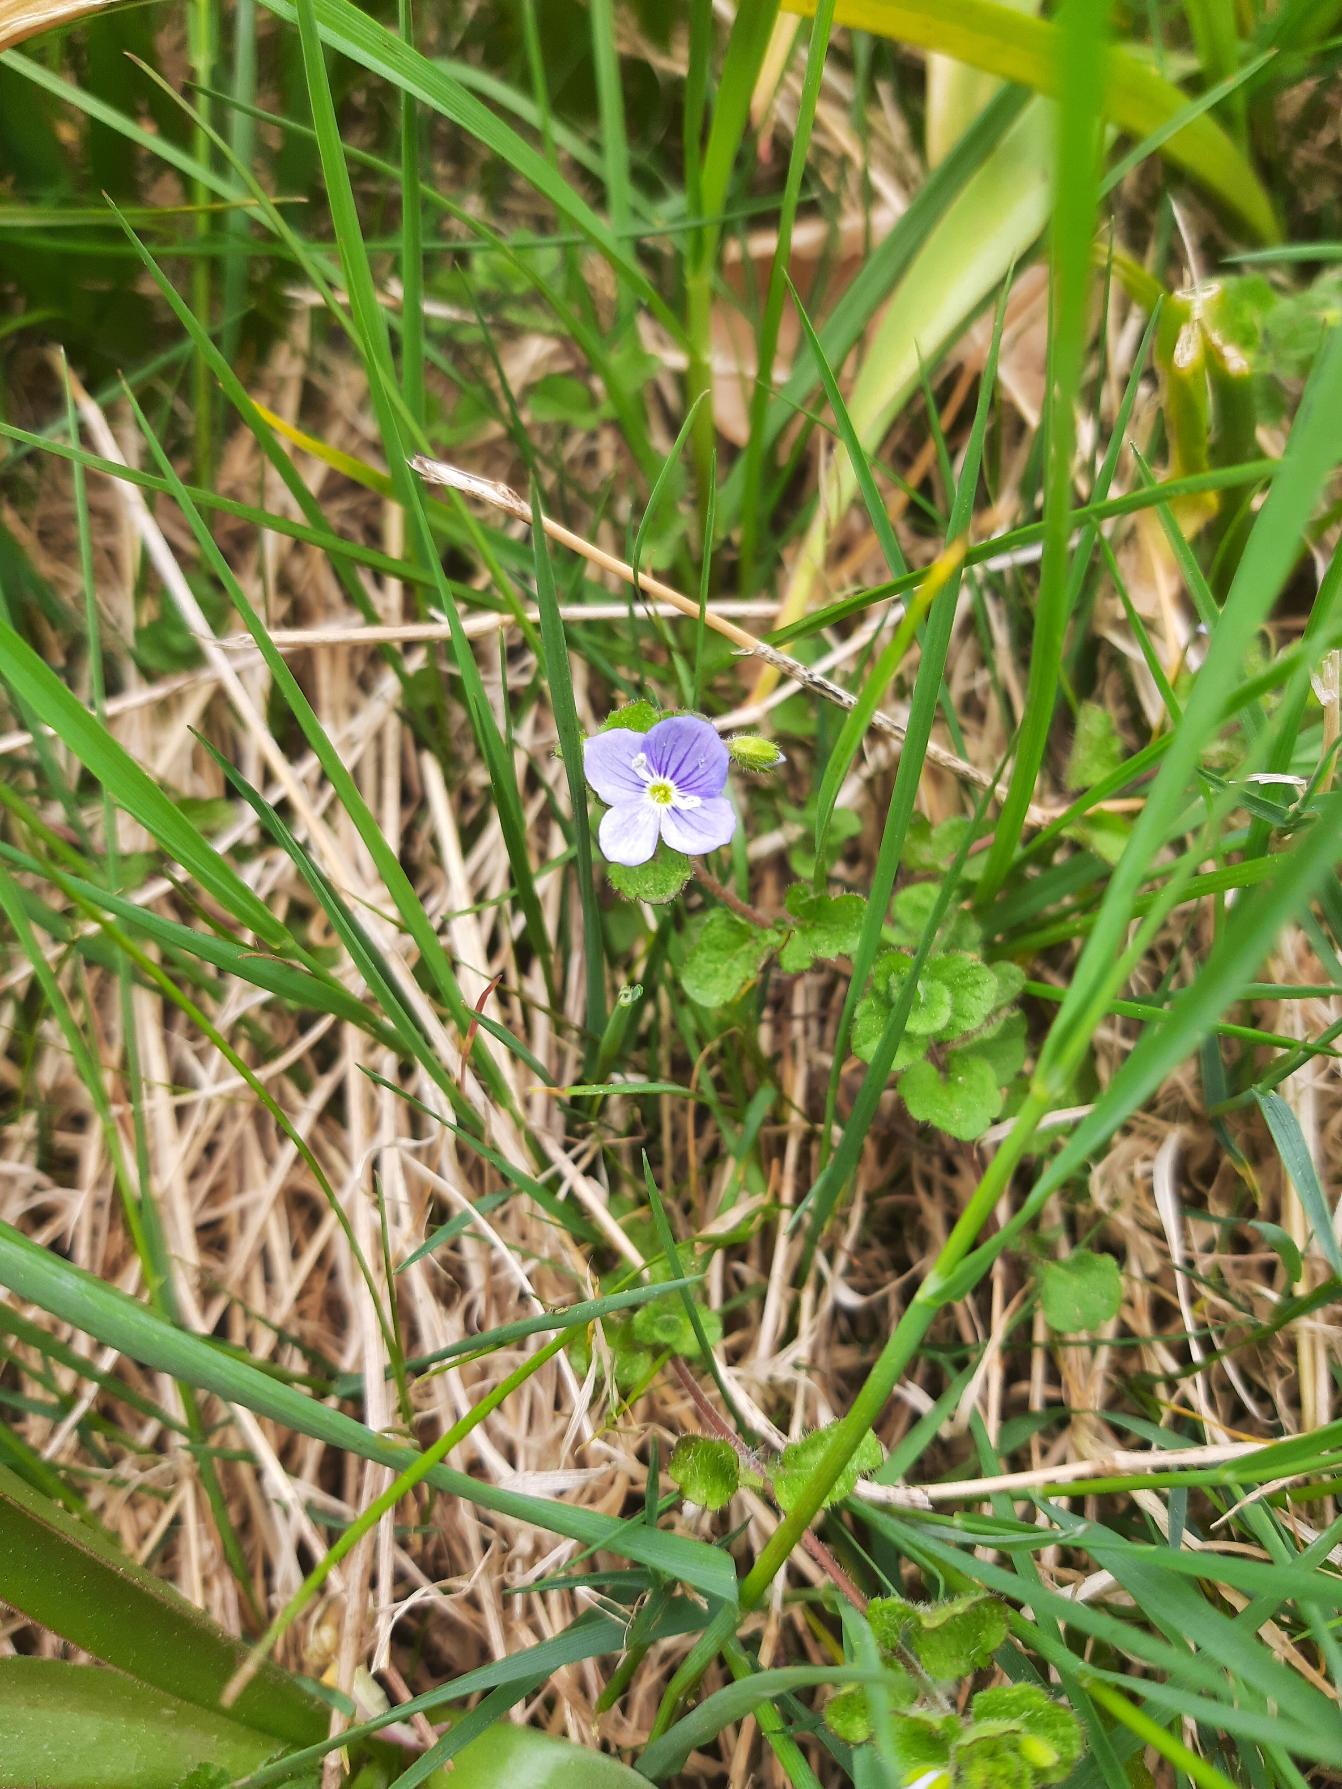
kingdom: Plantae
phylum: Tracheophyta
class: Magnoliopsida
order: Lamiales
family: Plantaginaceae
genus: Veronica
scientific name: Veronica filiformis
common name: Tråd-ærenpris
